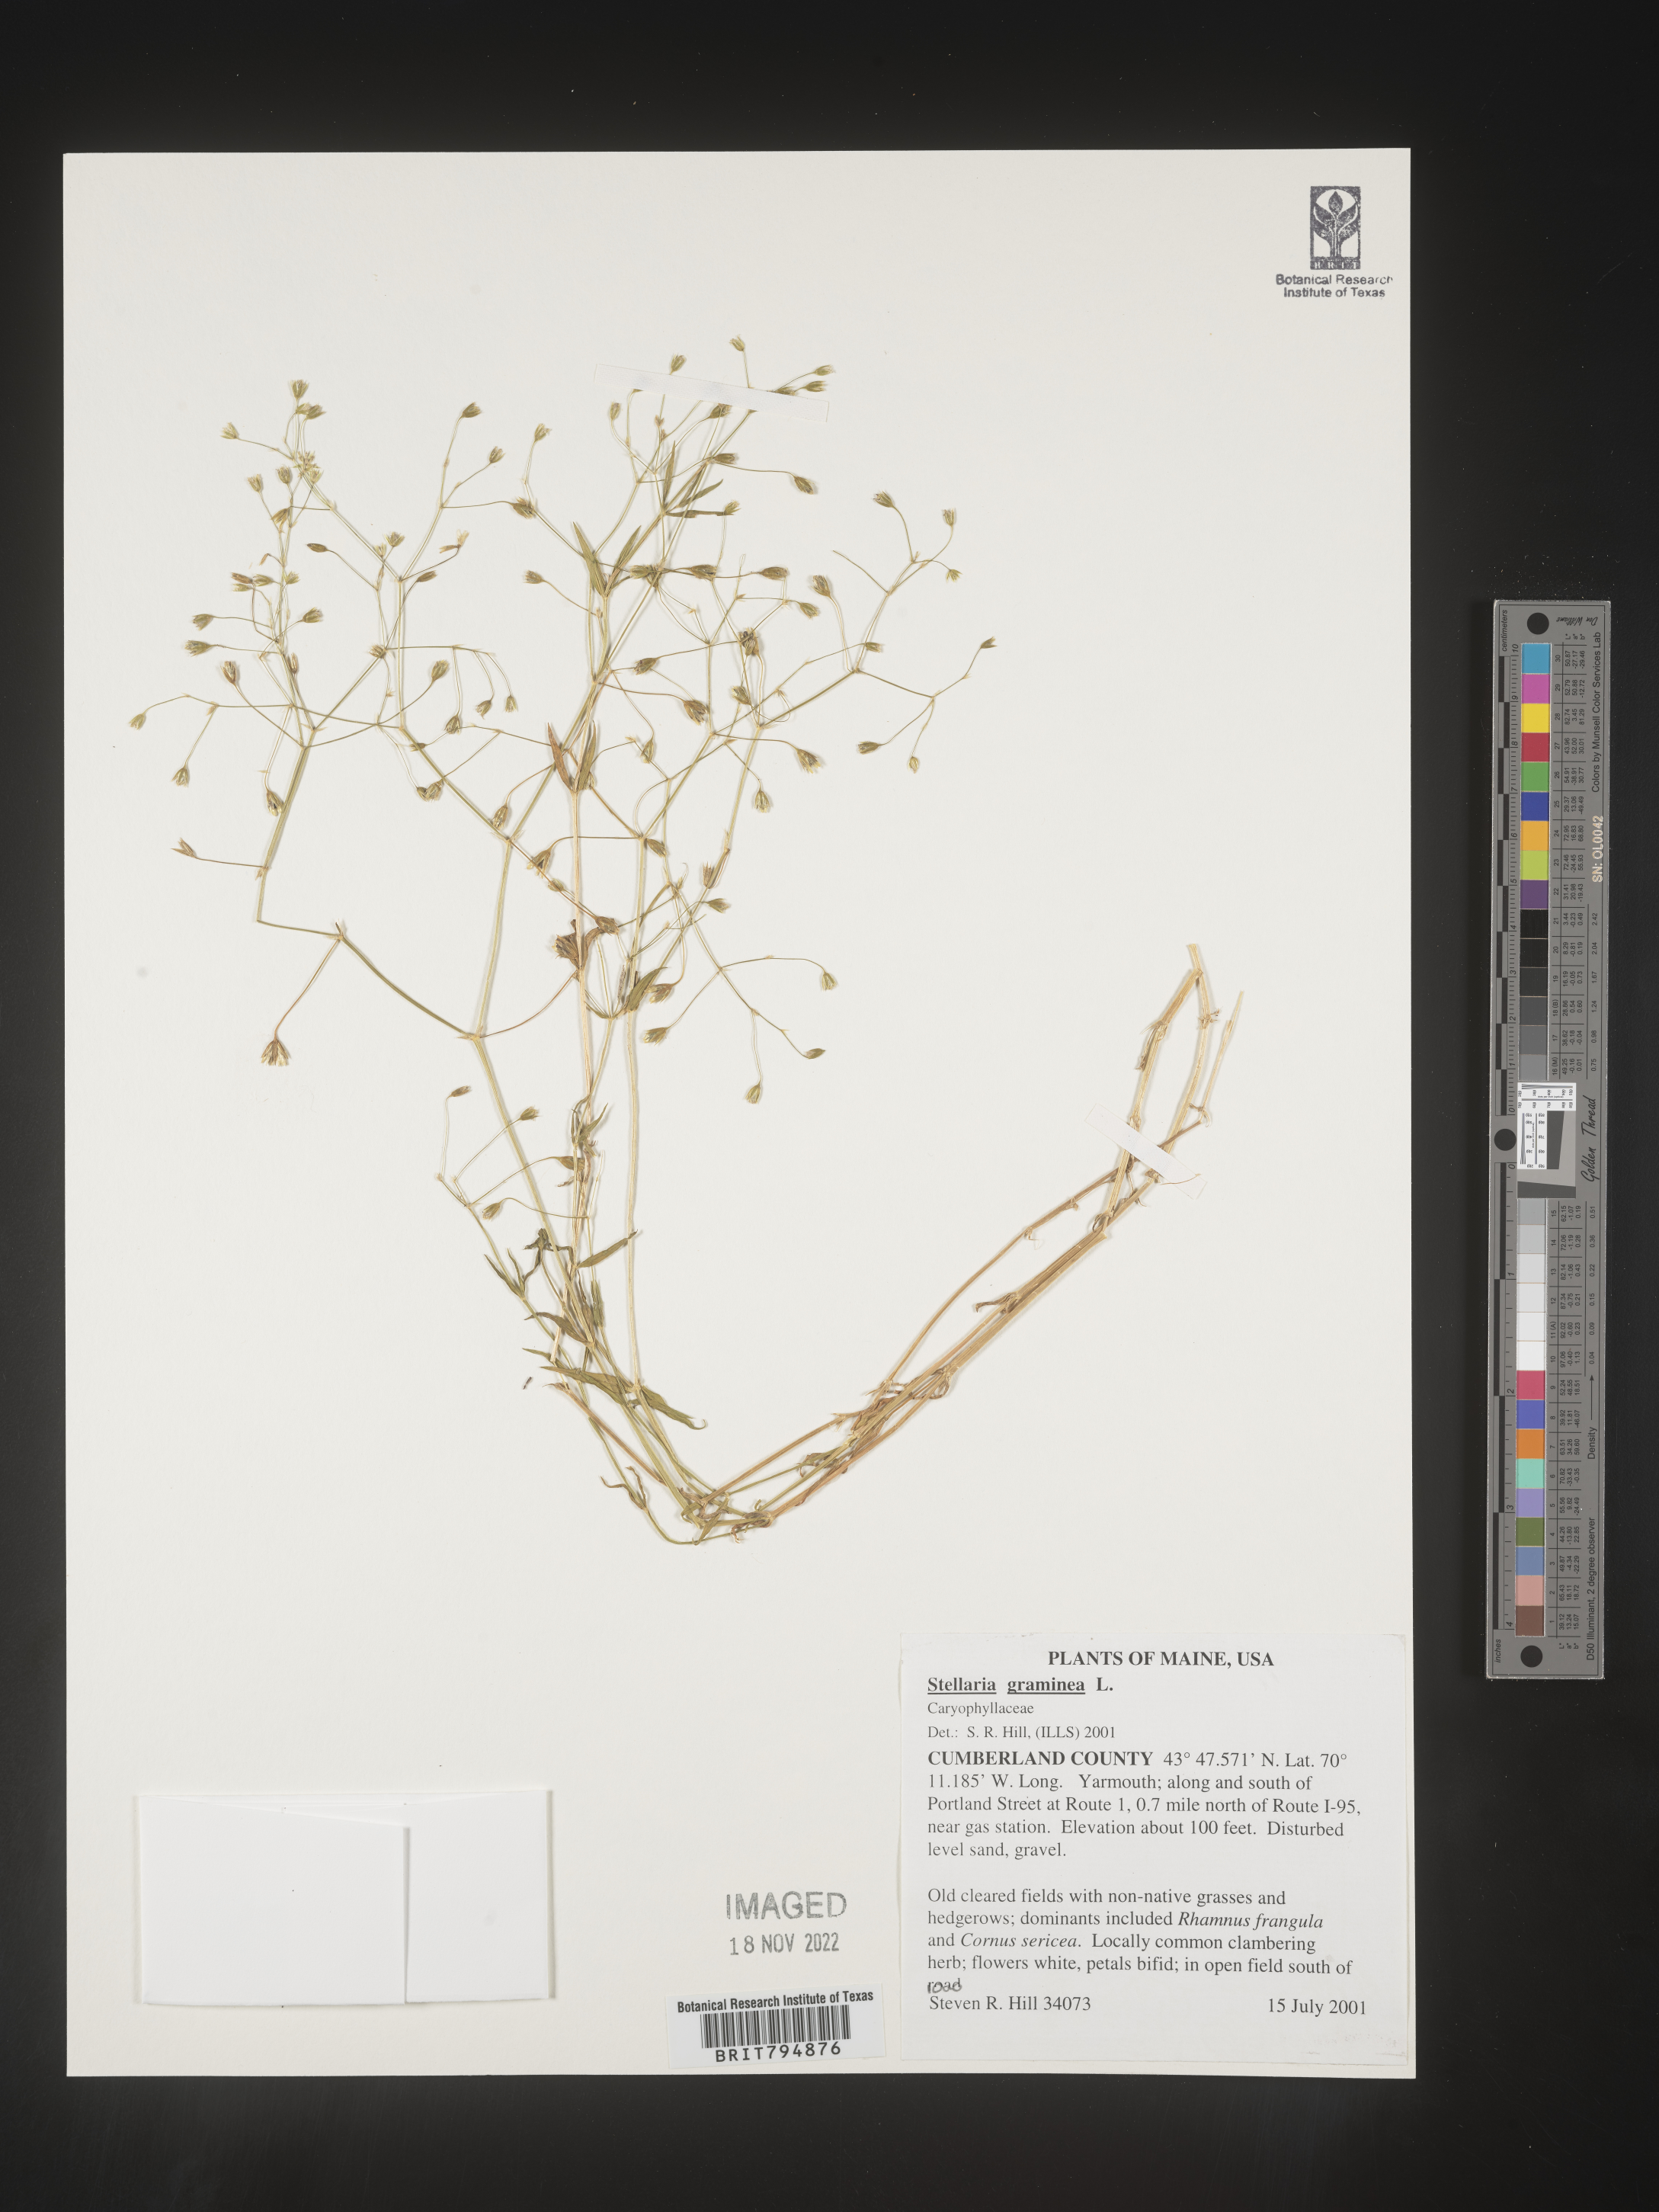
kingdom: Plantae
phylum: Tracheophyta
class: Magnoliopsida
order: Caryophyllales
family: Caryophyllaceae
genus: Stellaria
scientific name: Stellaria graminea
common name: Grass-like starwort
